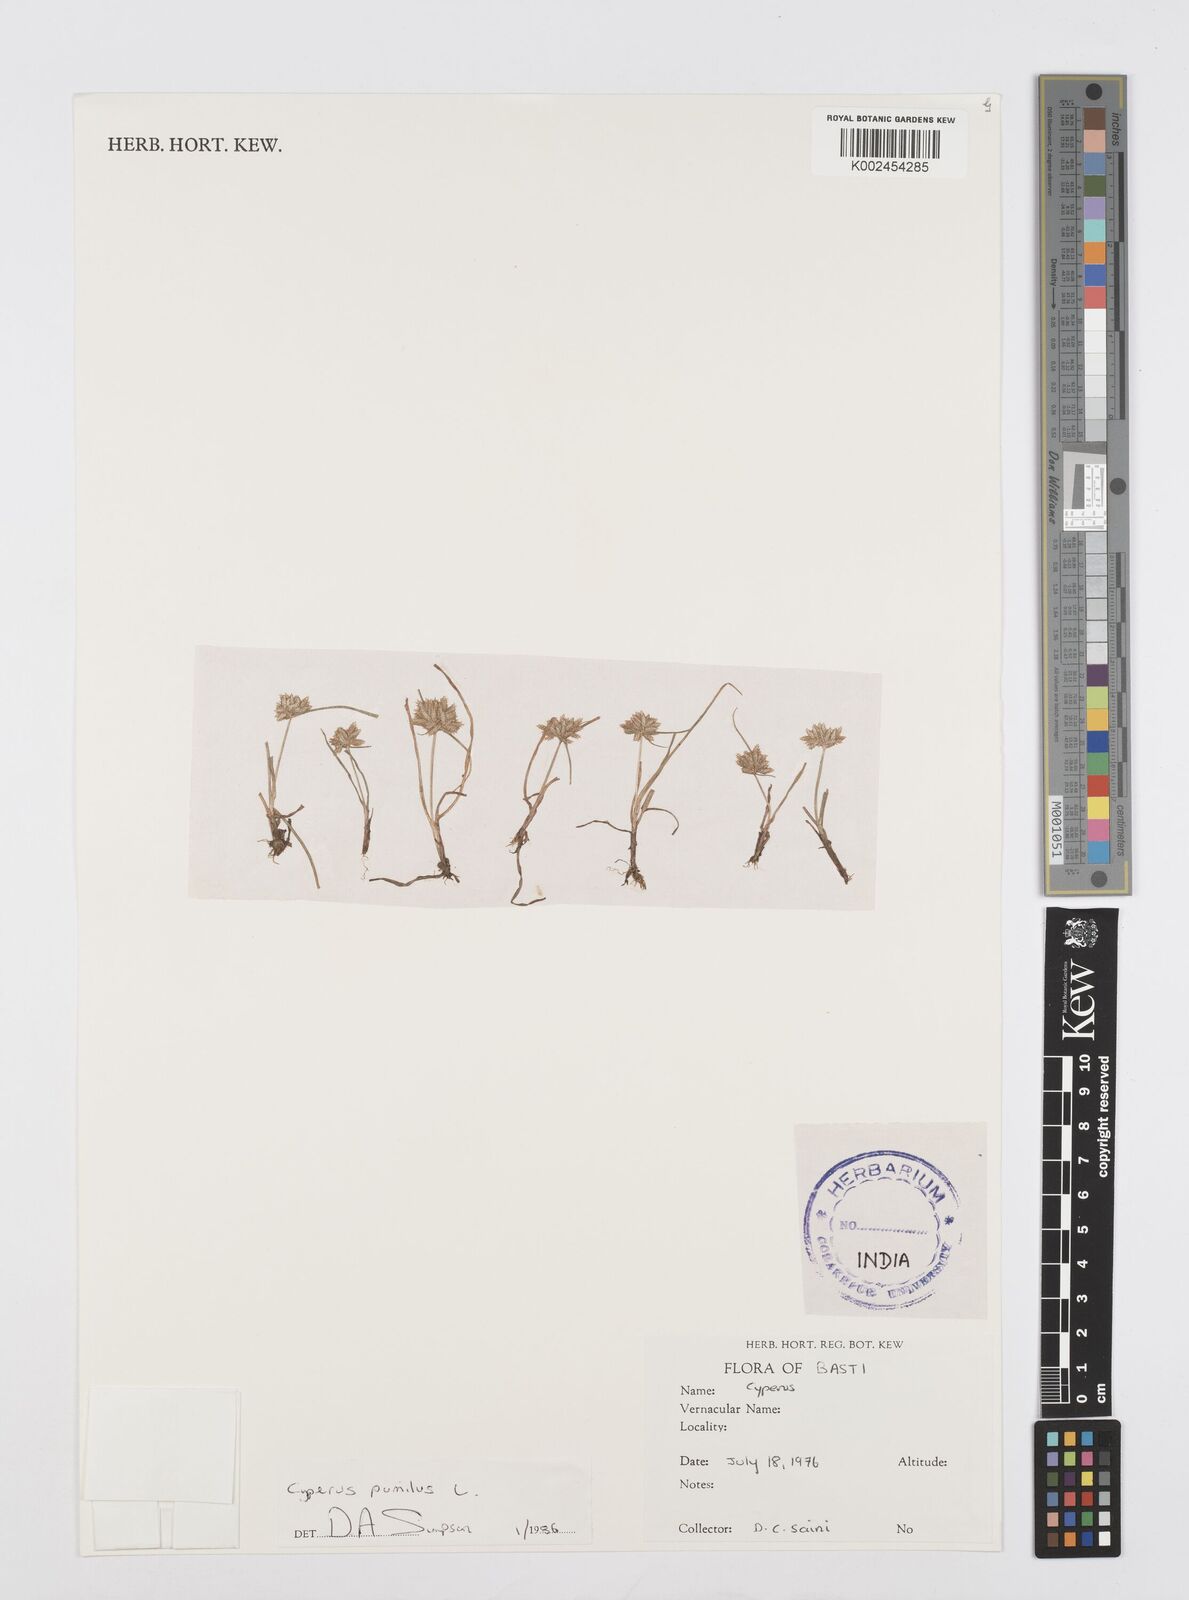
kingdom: Plantae
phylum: Tracheophyta
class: Liliopsida
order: Poales
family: Cyperaceae
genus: Cyperus
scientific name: Cyperus pumilus
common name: Low flatsedge
